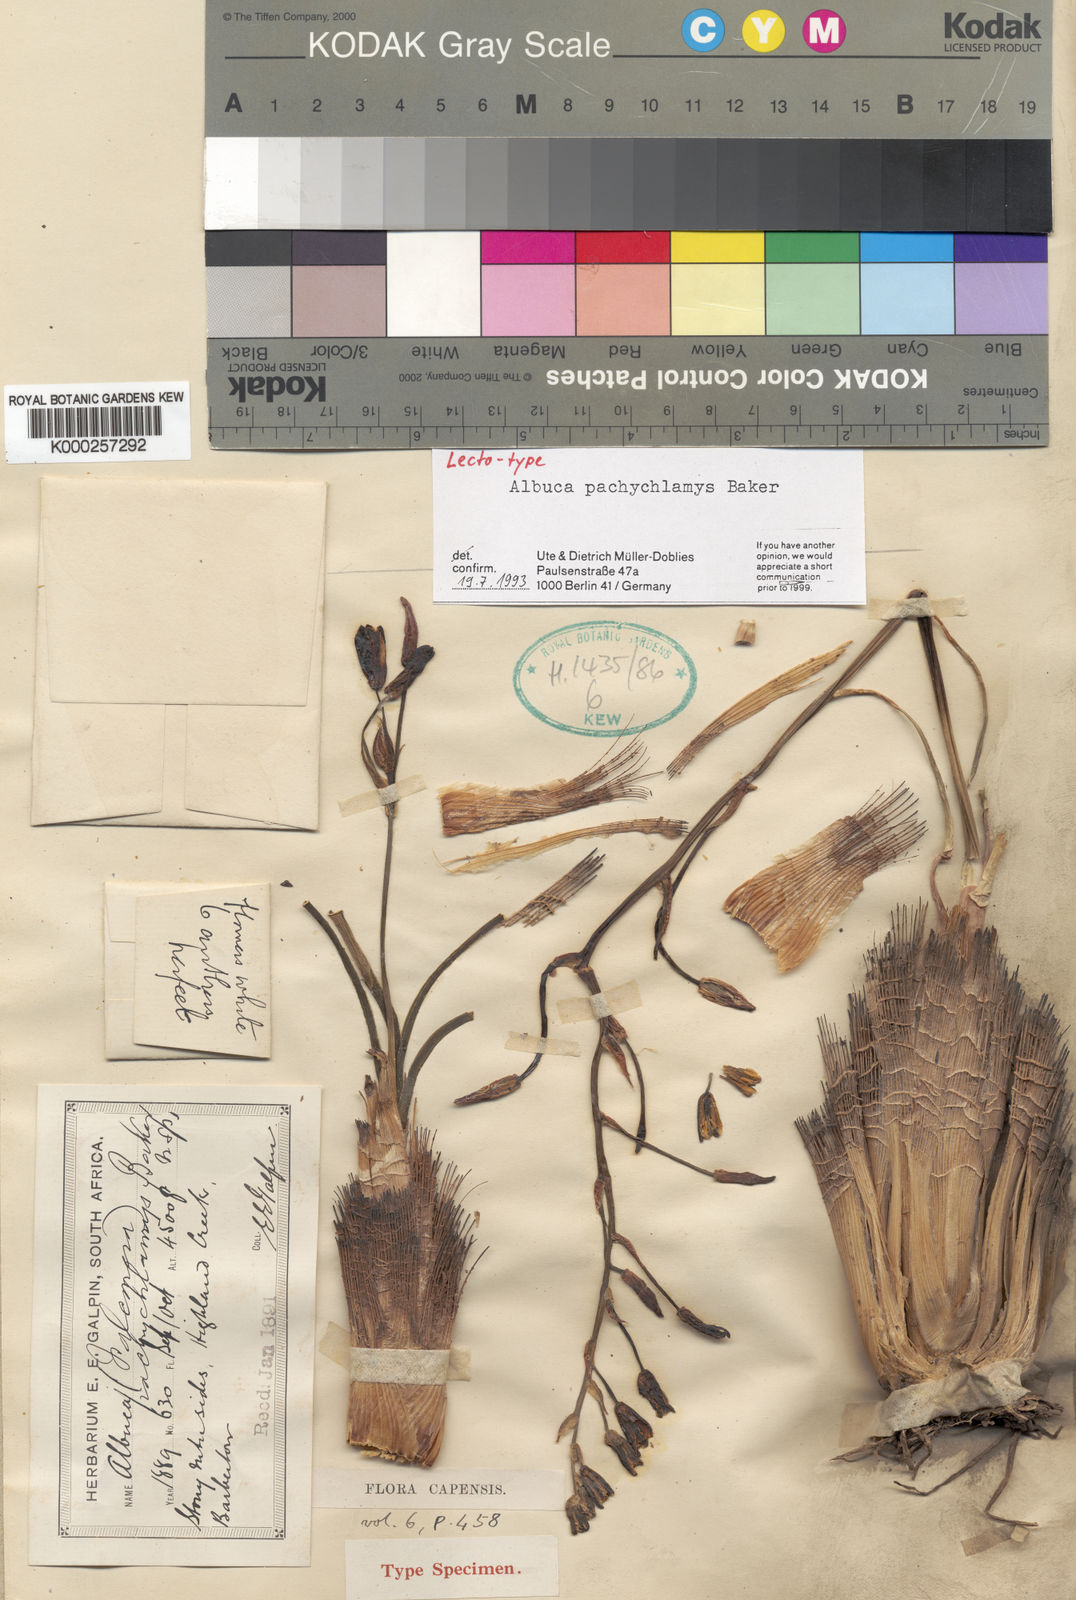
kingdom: Plantae
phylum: Tracheophyta
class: Liliopsida
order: Asparagales
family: Asparagaceae
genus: Albuca
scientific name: Albuca setosa
